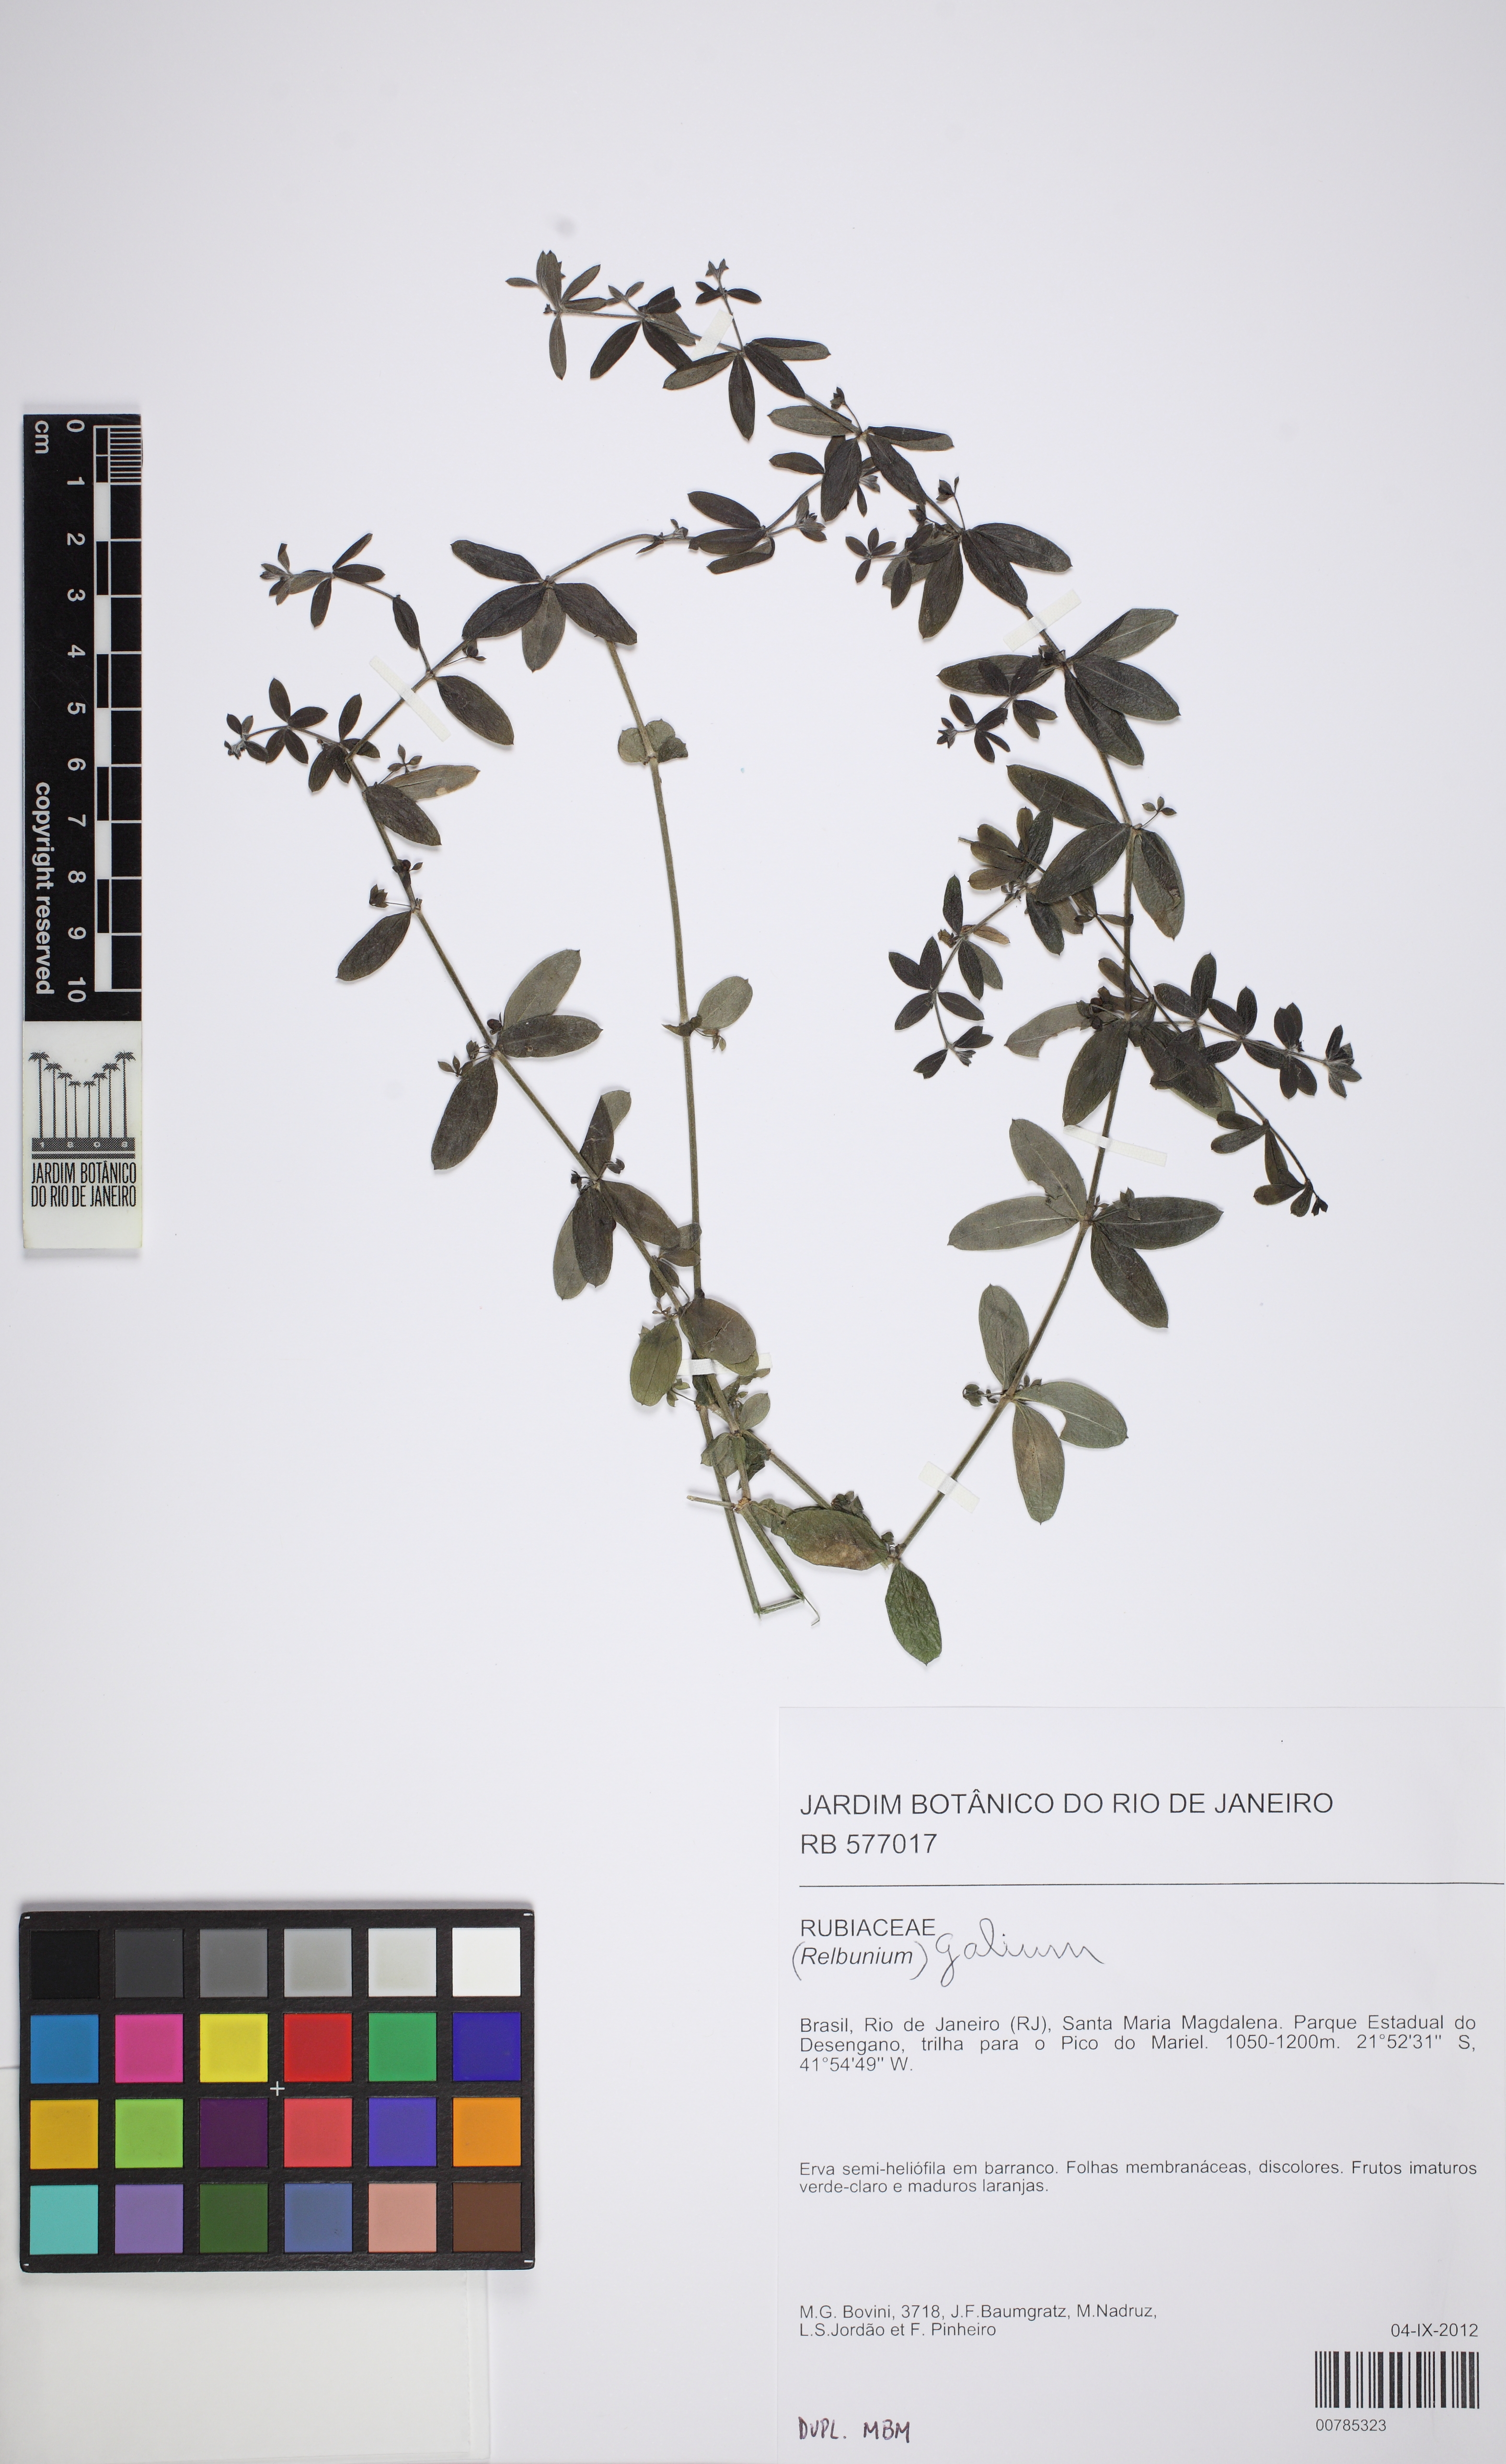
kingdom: Plantae
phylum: Tracheophyta
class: Magnoliopsida
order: Gentianales
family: Rubiaceae
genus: Galium
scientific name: Galium hypocarpium
